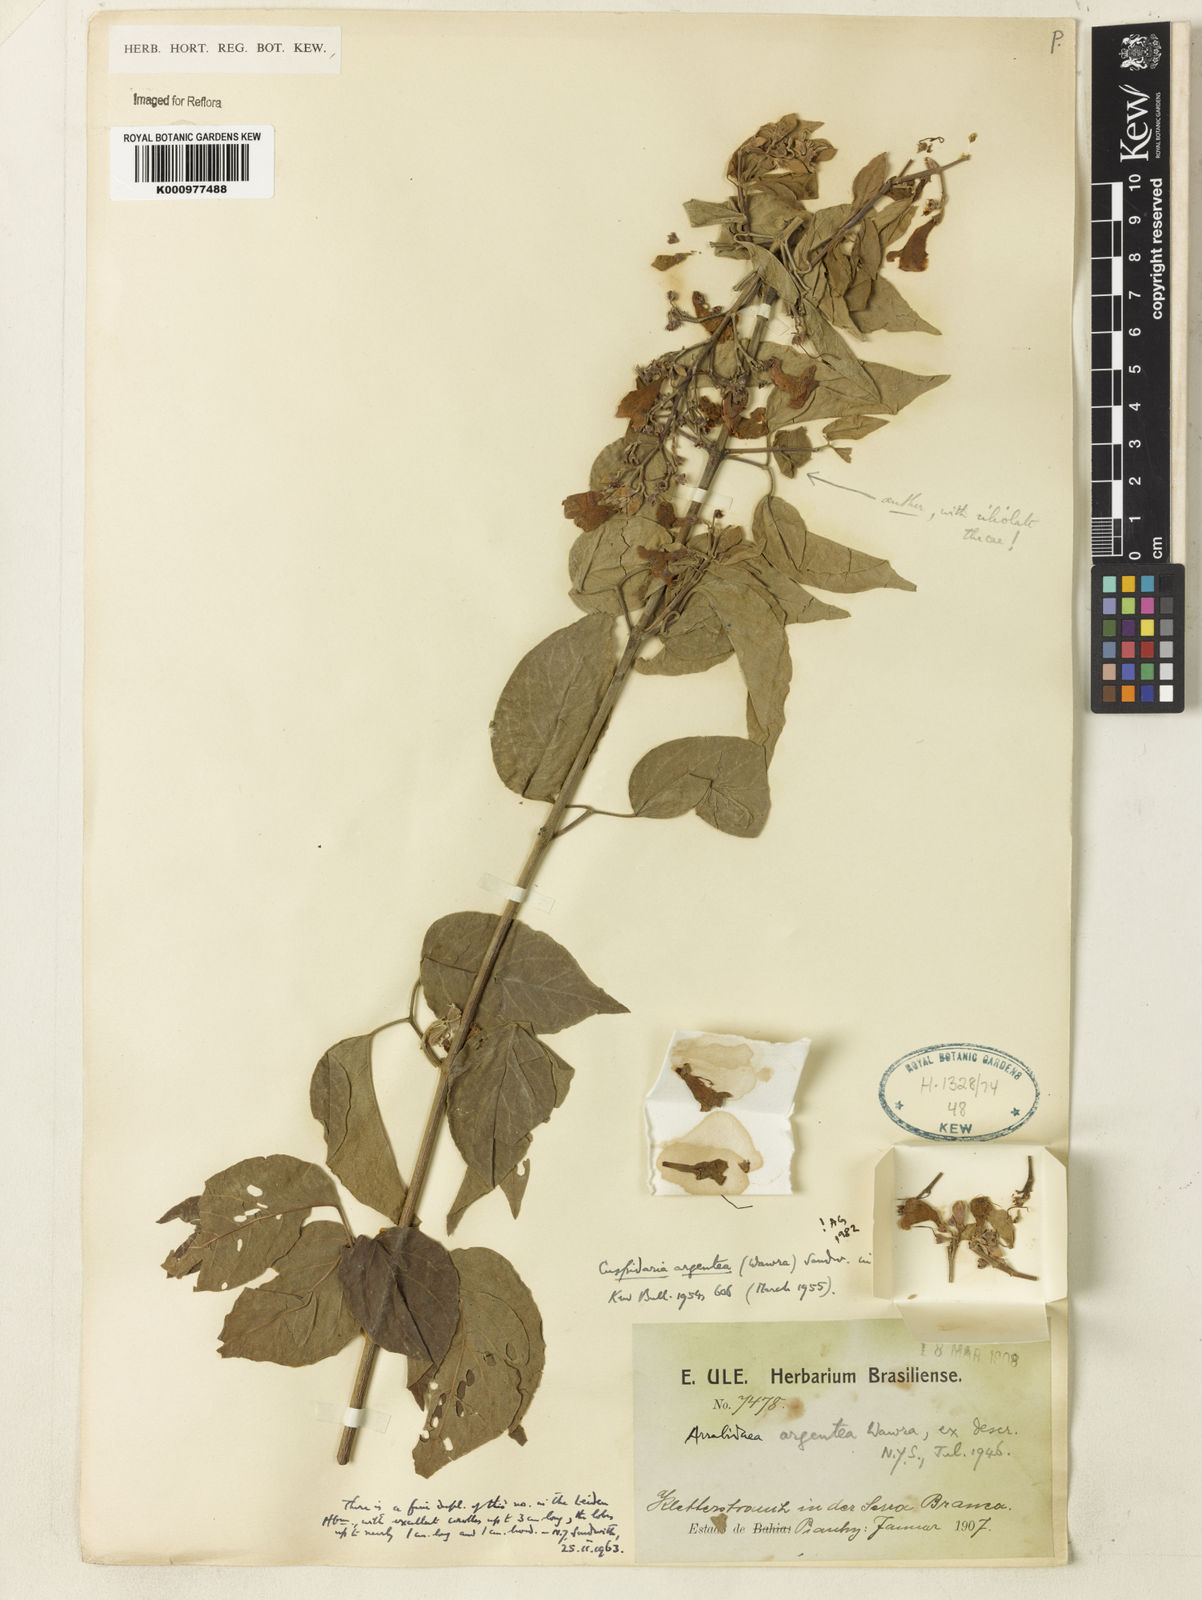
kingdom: Plantae
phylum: Tracheophyta
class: Magnoliopsida
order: Lamiales
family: Bignoniaceae
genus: Cuspidaria
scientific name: Cuspidaria argentea
